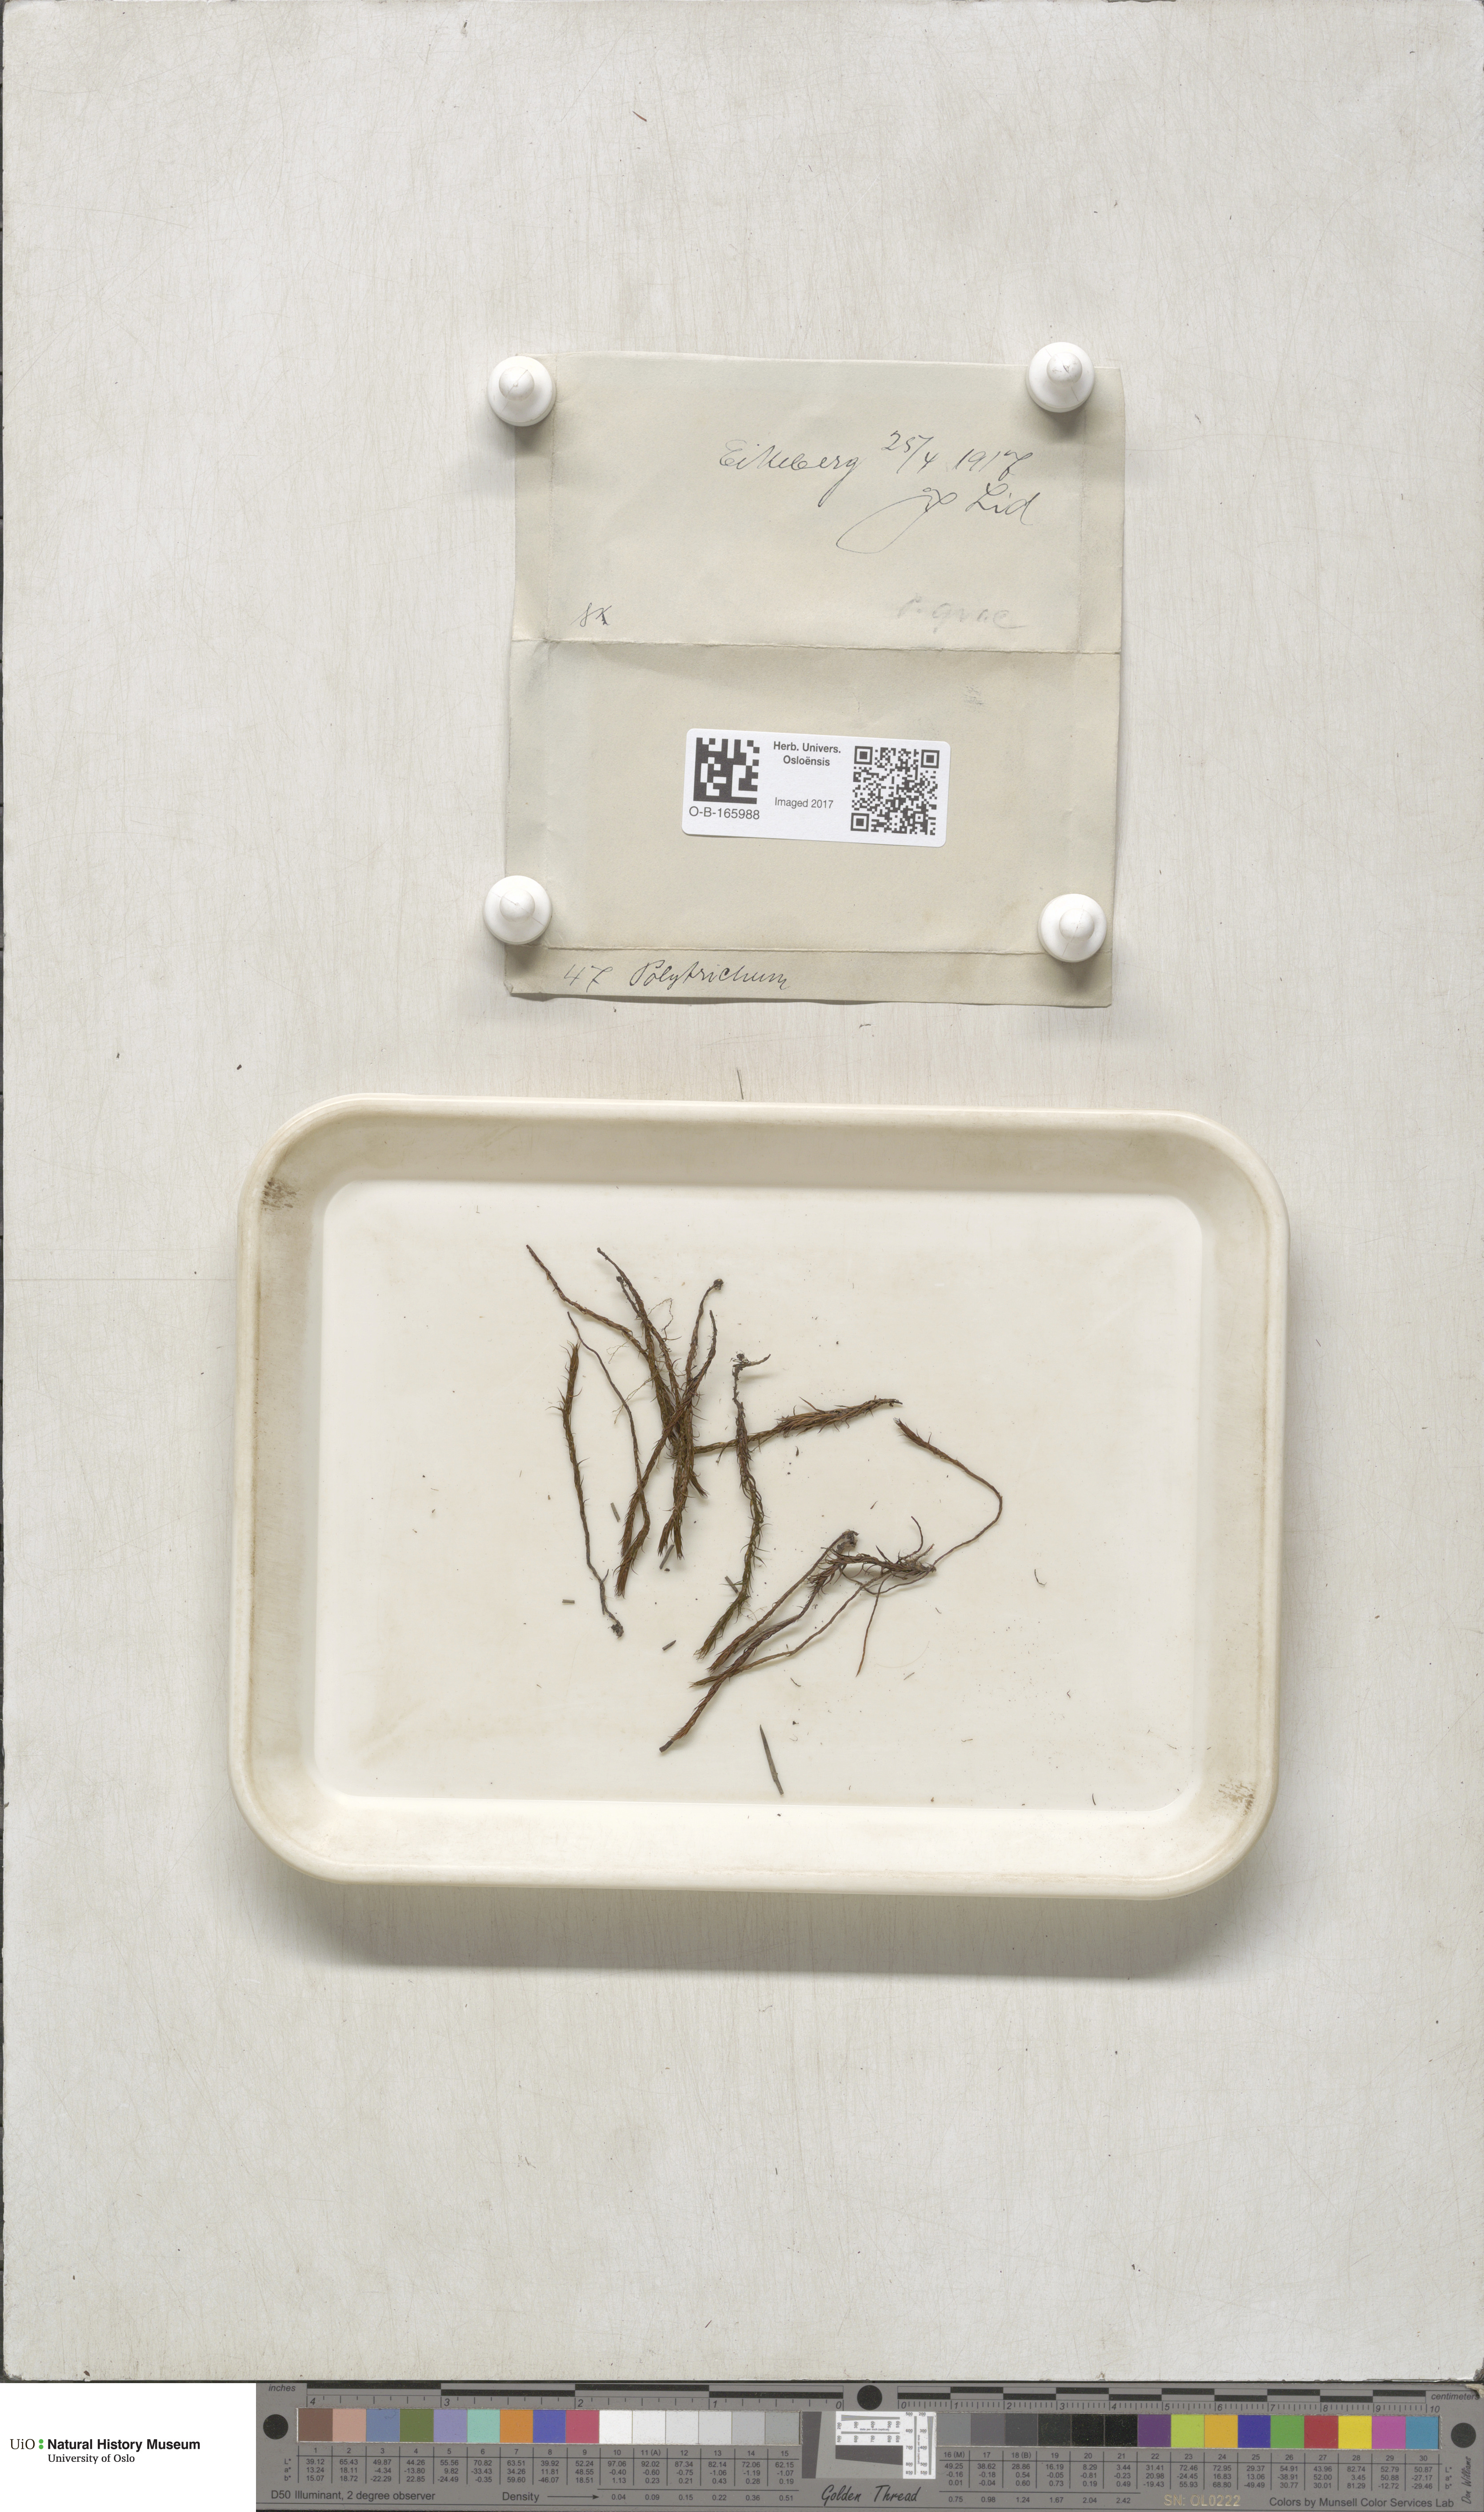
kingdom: Plantae
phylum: Bryophyta
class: Polytrichopsida
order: Polytrichales
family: Polytrichaceae
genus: Polytrichum
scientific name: Polytrichum
